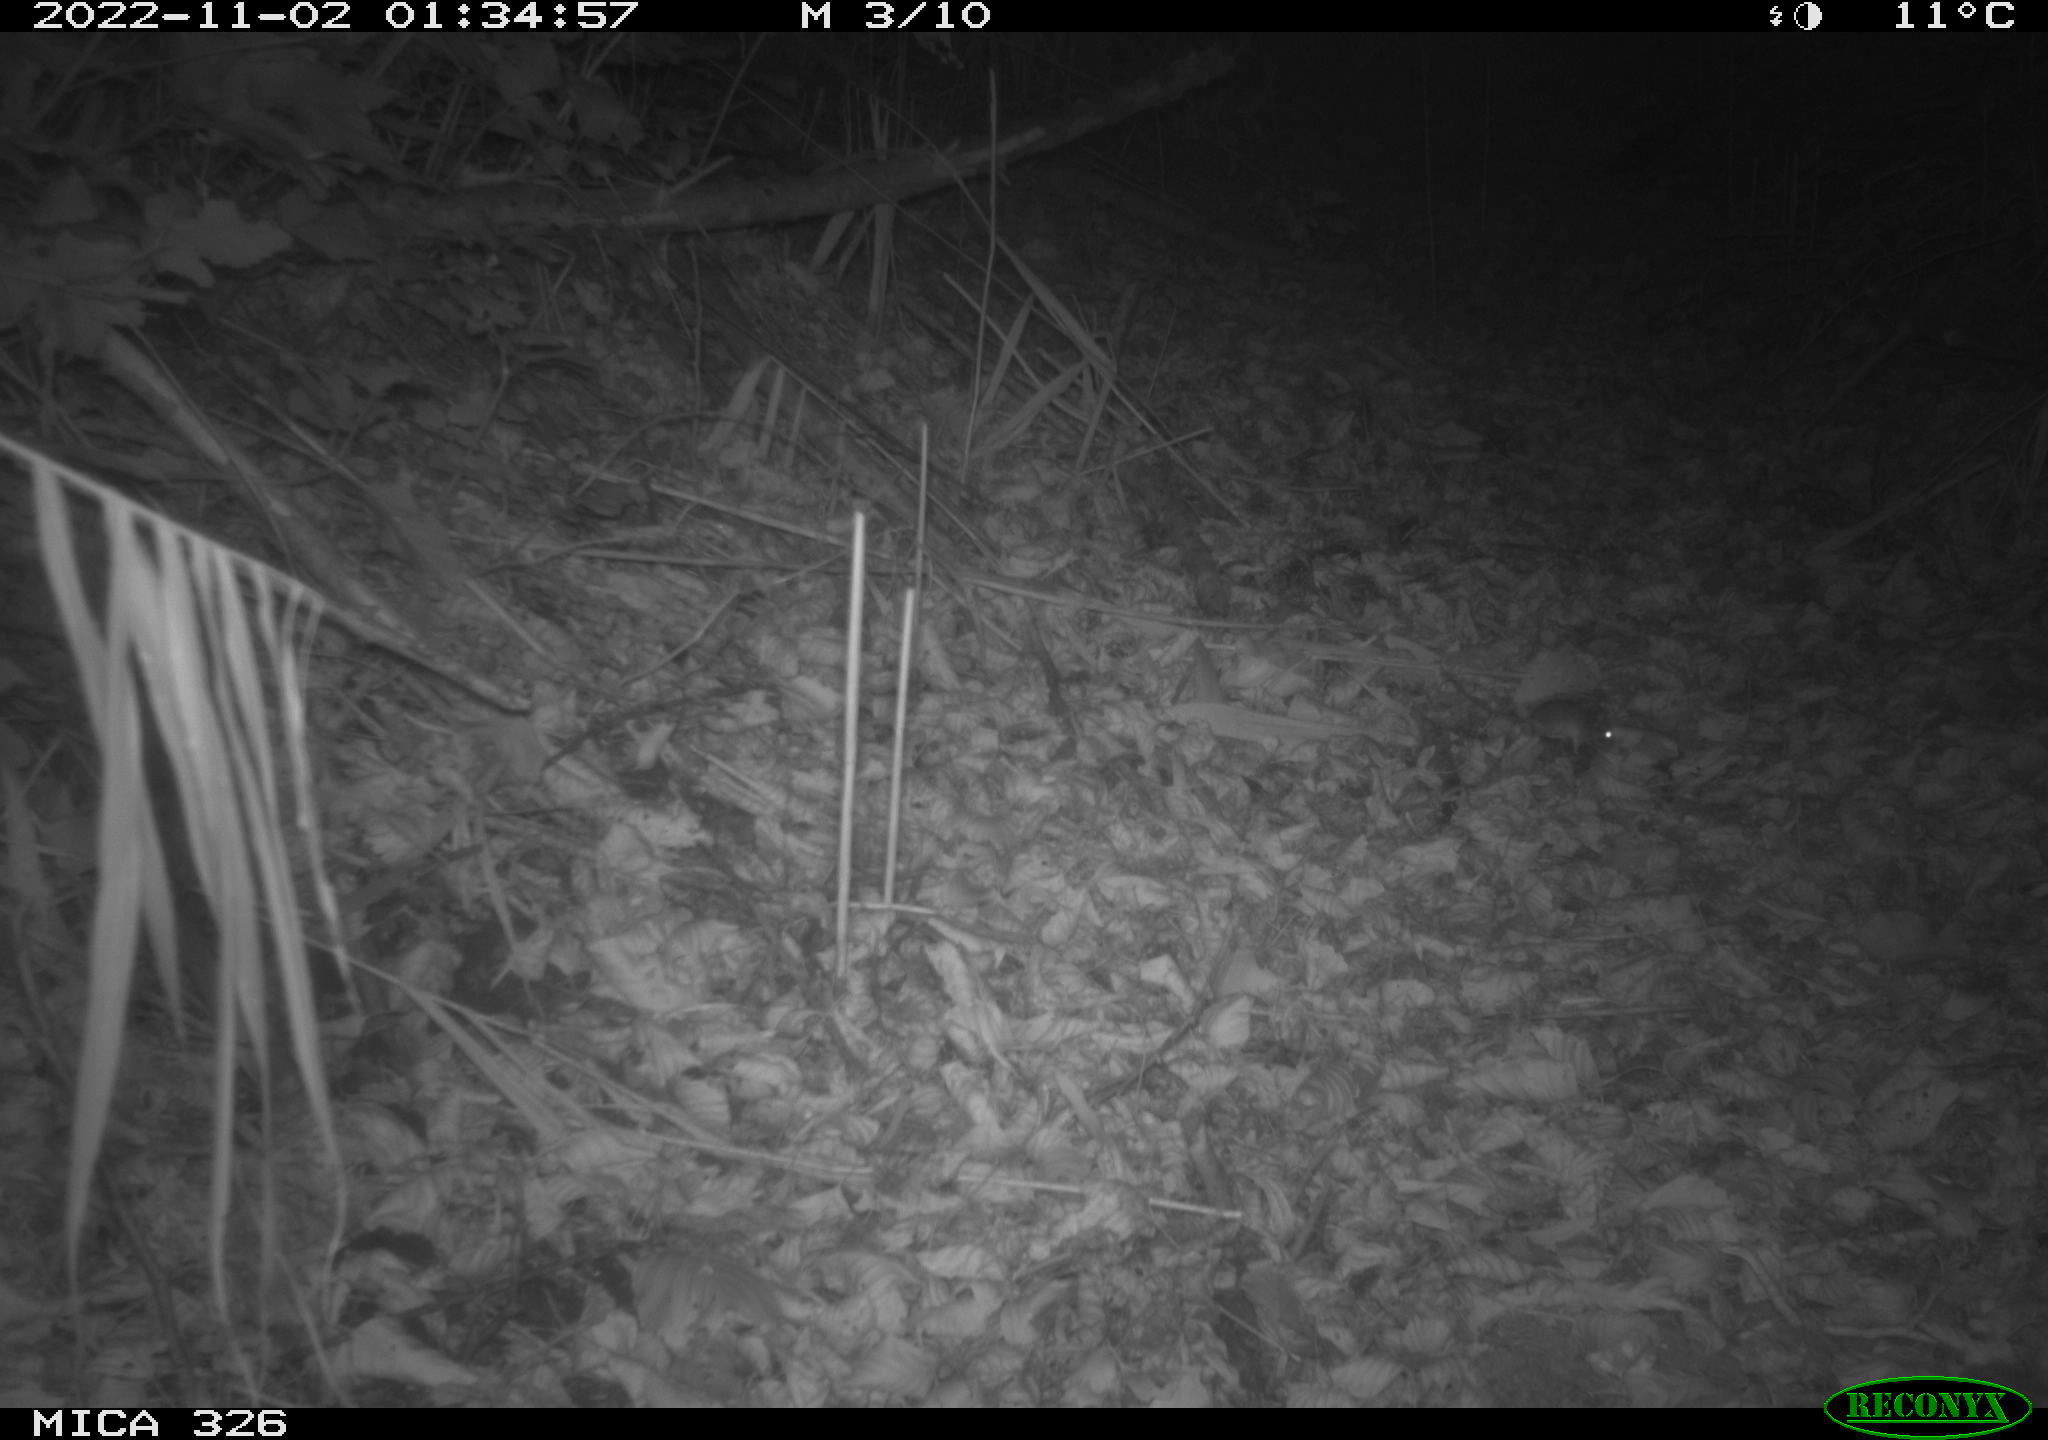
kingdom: Animalia
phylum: Chordata
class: Mammalia
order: Rodentia
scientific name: Rodentia
